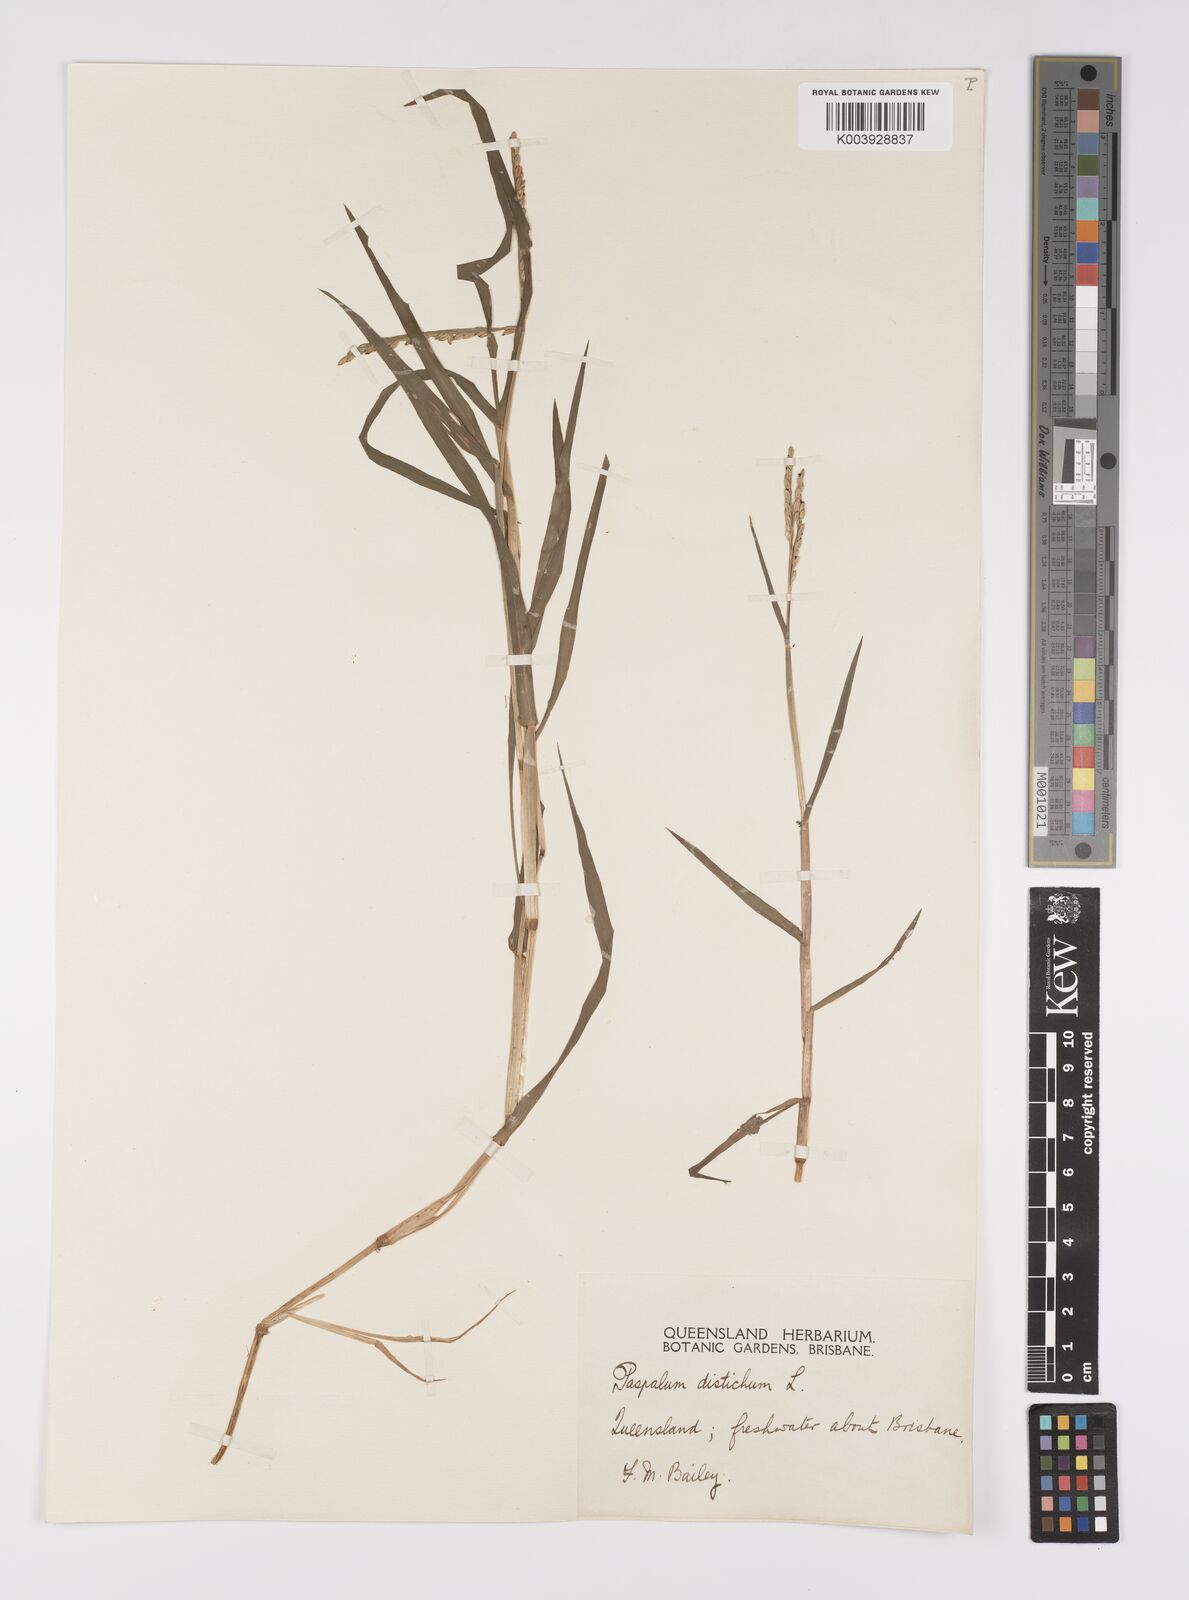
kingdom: Plantae
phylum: Tracheophyta
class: Liliopsida
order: Poales
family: Poaceae
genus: Paspalum
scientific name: Paspalum distichum
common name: Knotgrass
